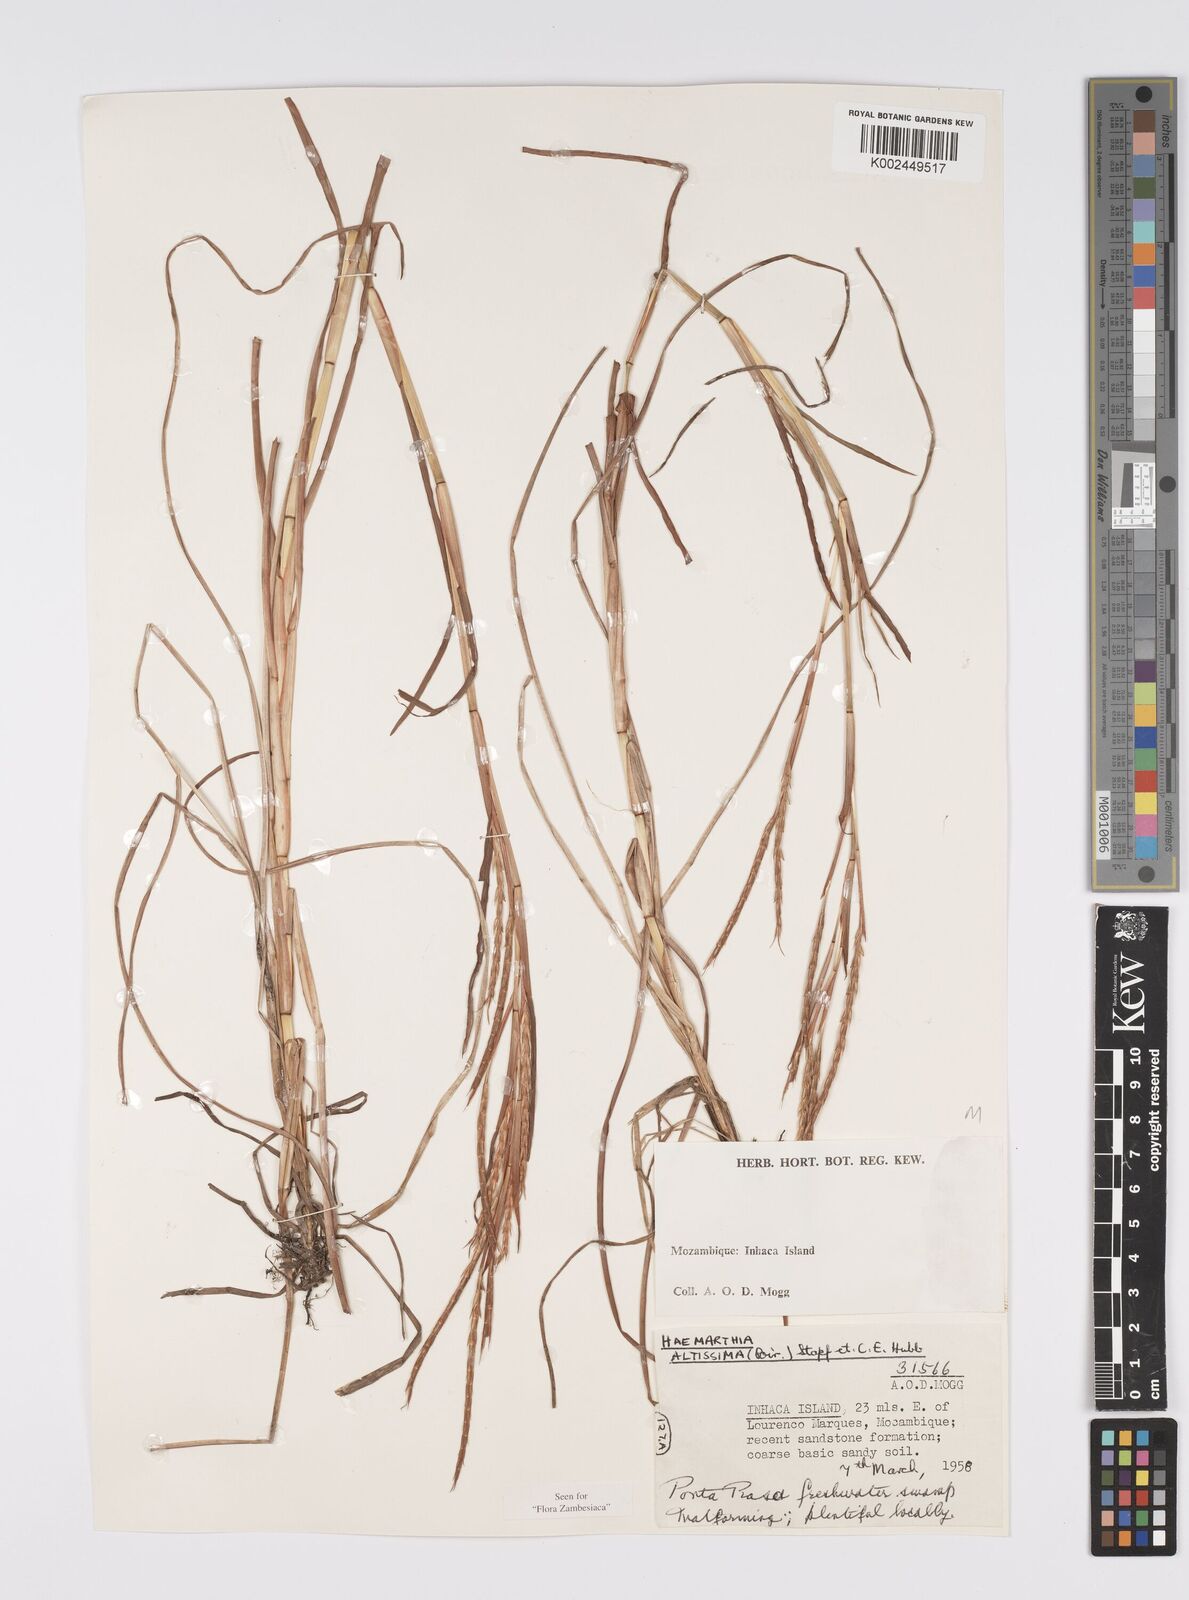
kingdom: Plantae
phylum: Tracheophyta
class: Liliopsida
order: Poales
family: Poaceae
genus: Hemarthria
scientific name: Hemarthria altissima
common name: African jointgrass
